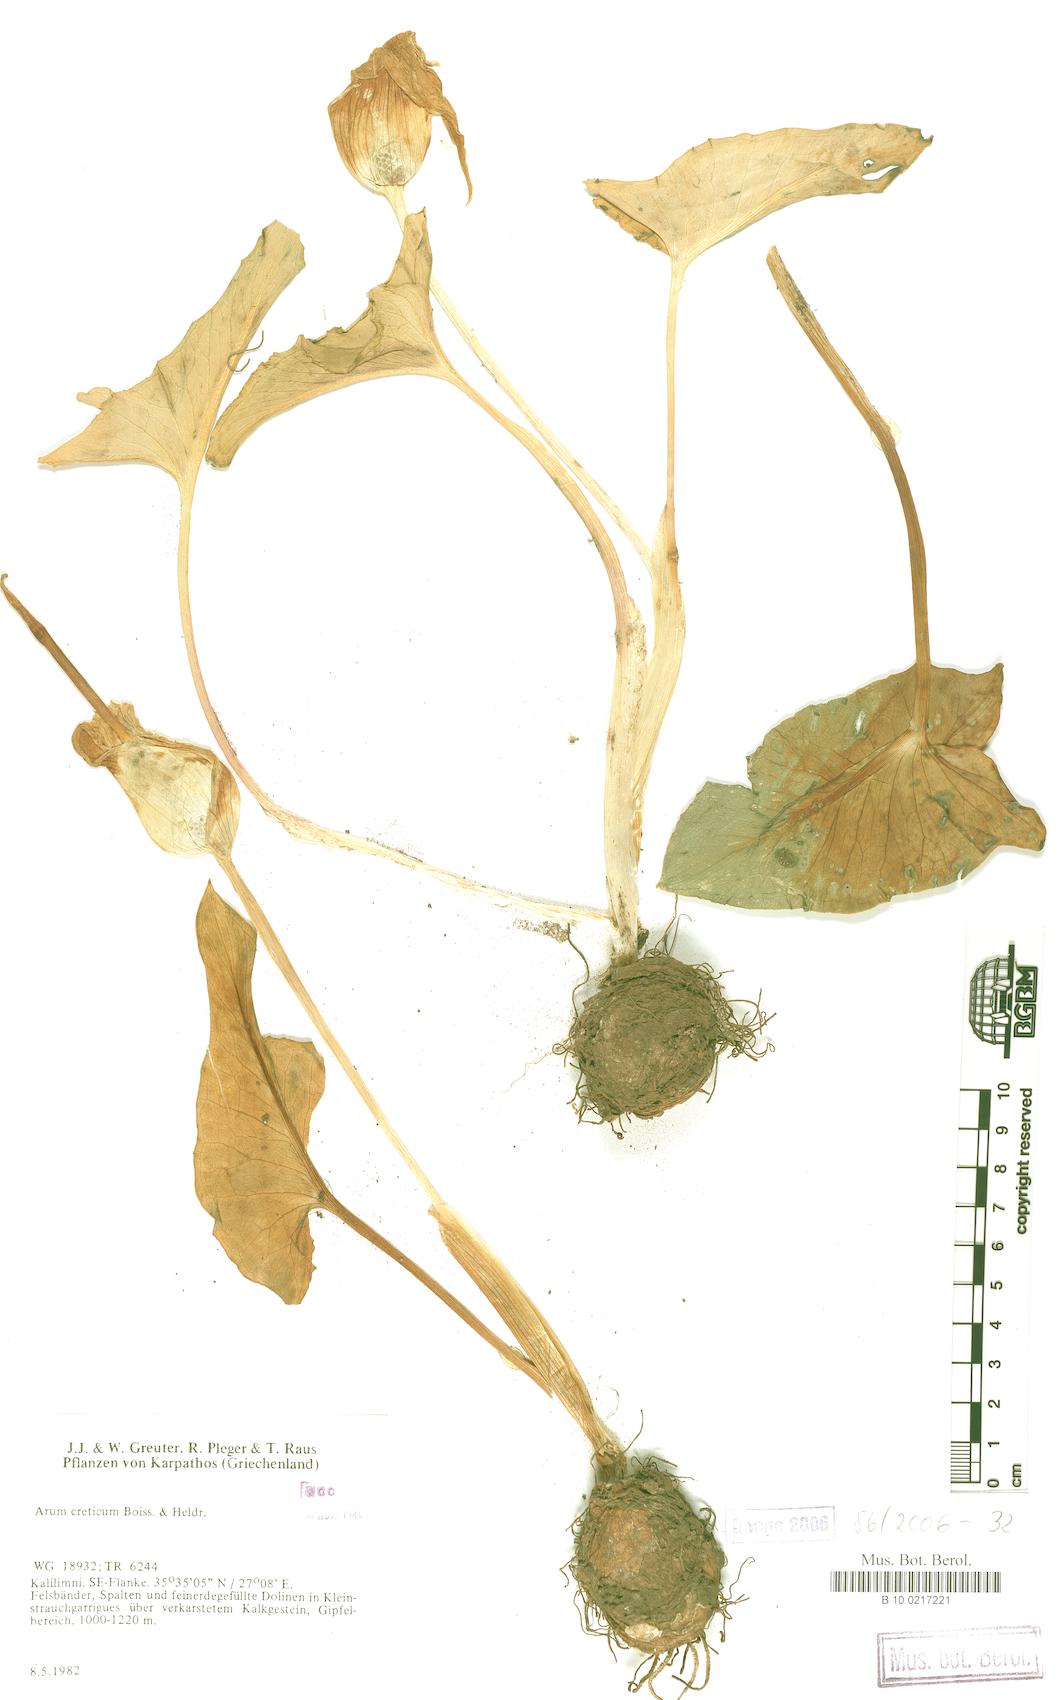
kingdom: Plantae
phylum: Tracheophyta
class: Liliopsida
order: Alismatales
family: Araceae
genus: Arum
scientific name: Arum creticum
